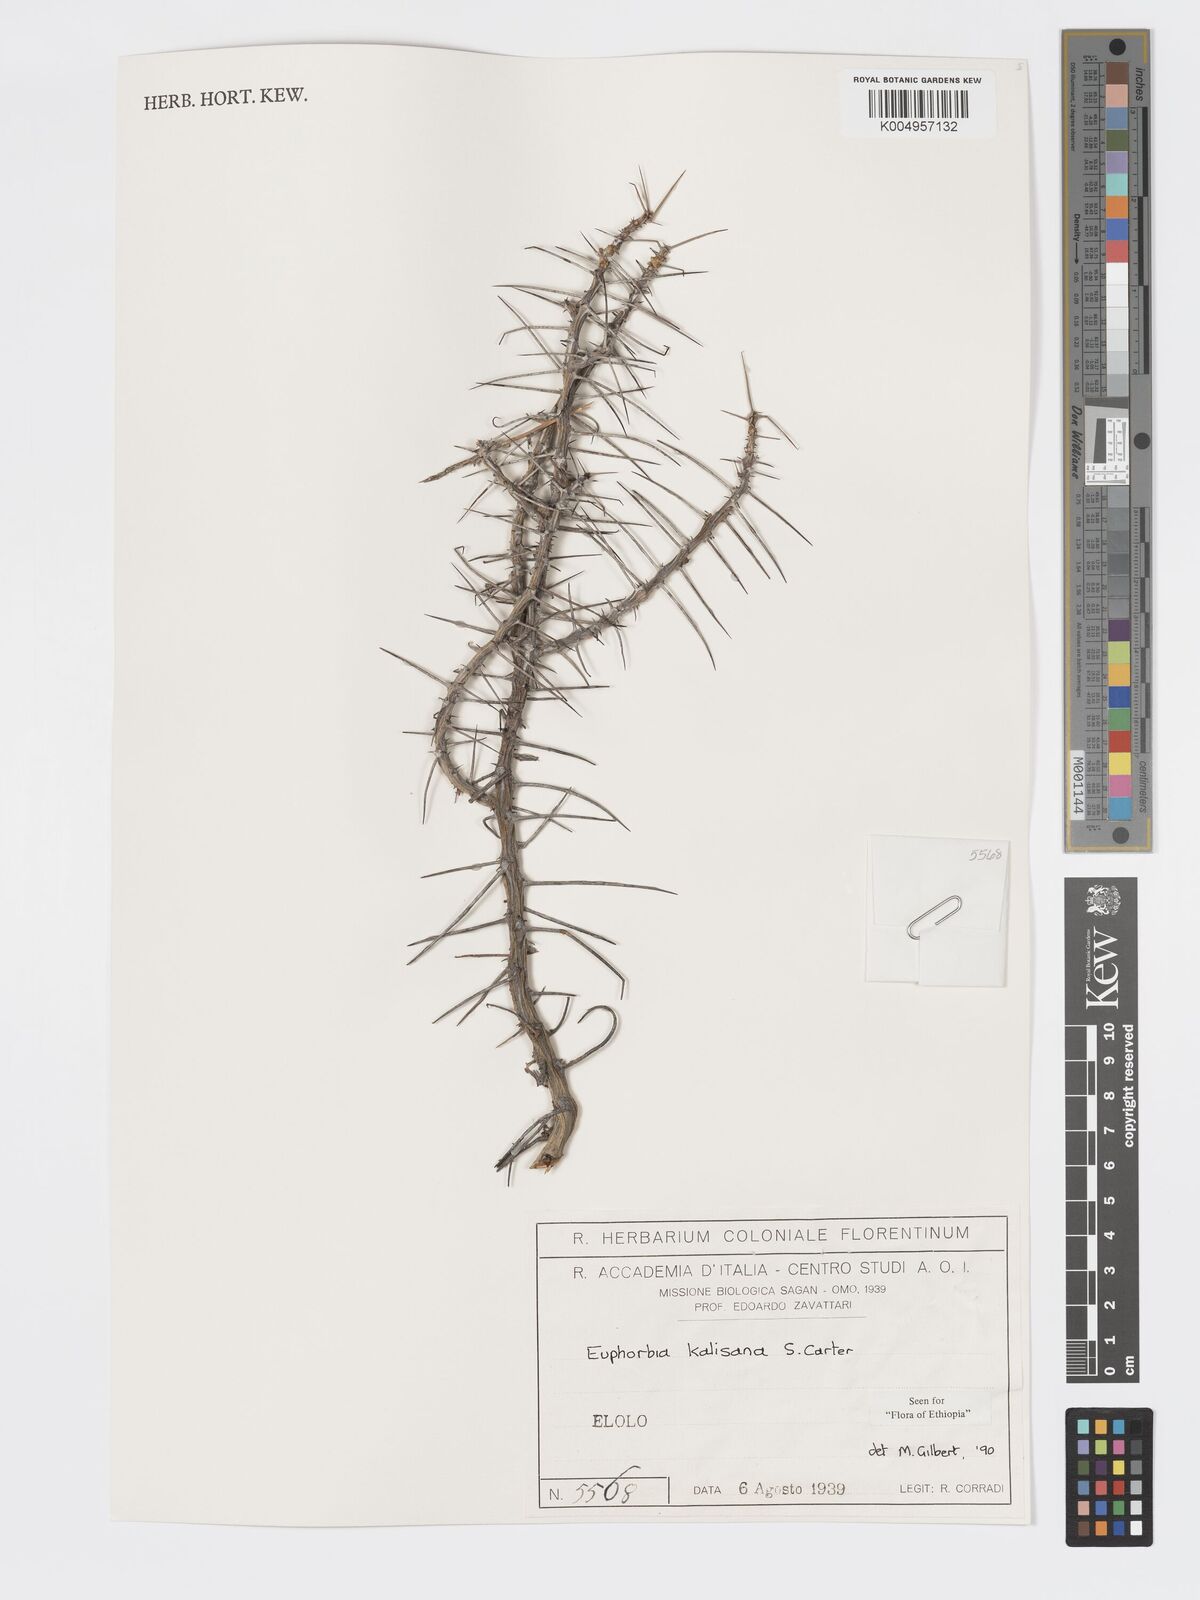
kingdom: Plantae
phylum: Tracheophyta
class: Magnoliopsida
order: Malpighiales
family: Euphorbiaceae
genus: Euphorbia
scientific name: Euphorbia kalisana
